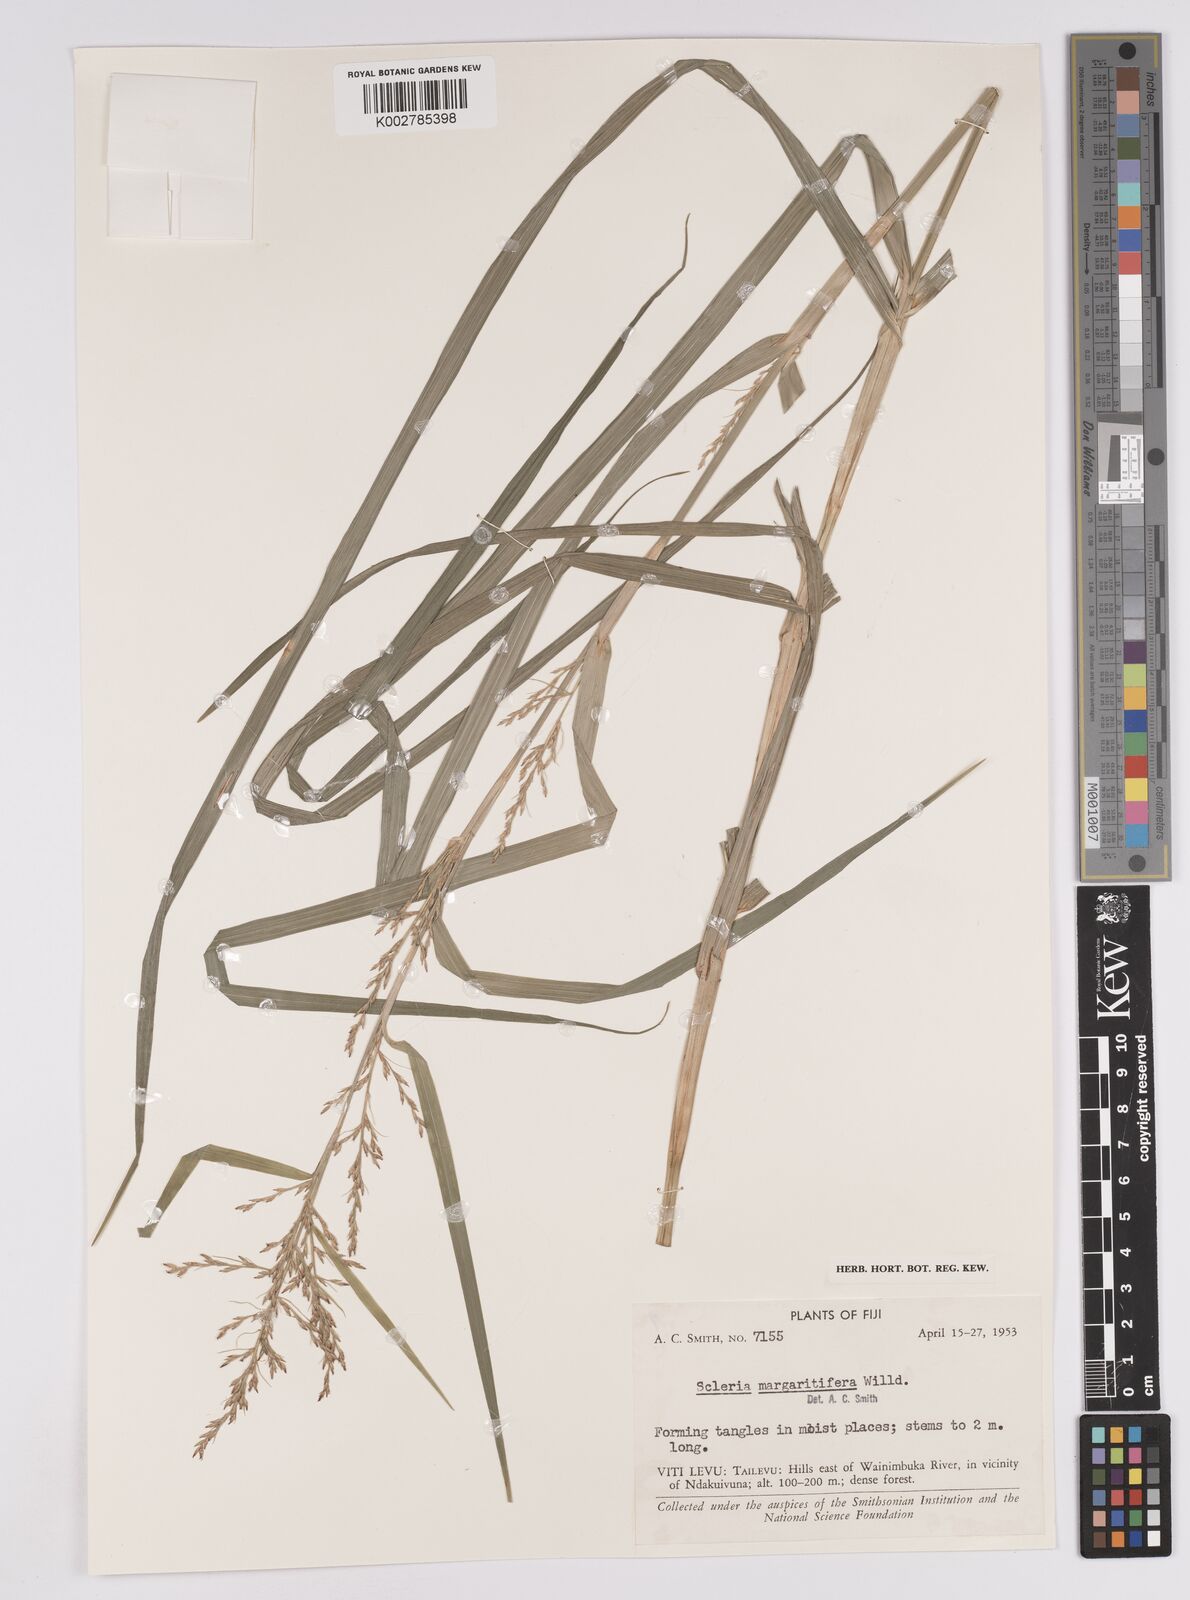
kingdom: Plantae
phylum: Tracheophyta
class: Liliopsida
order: Poales
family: Cyperaceae
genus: Scleria
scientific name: Scleria polycarpa
